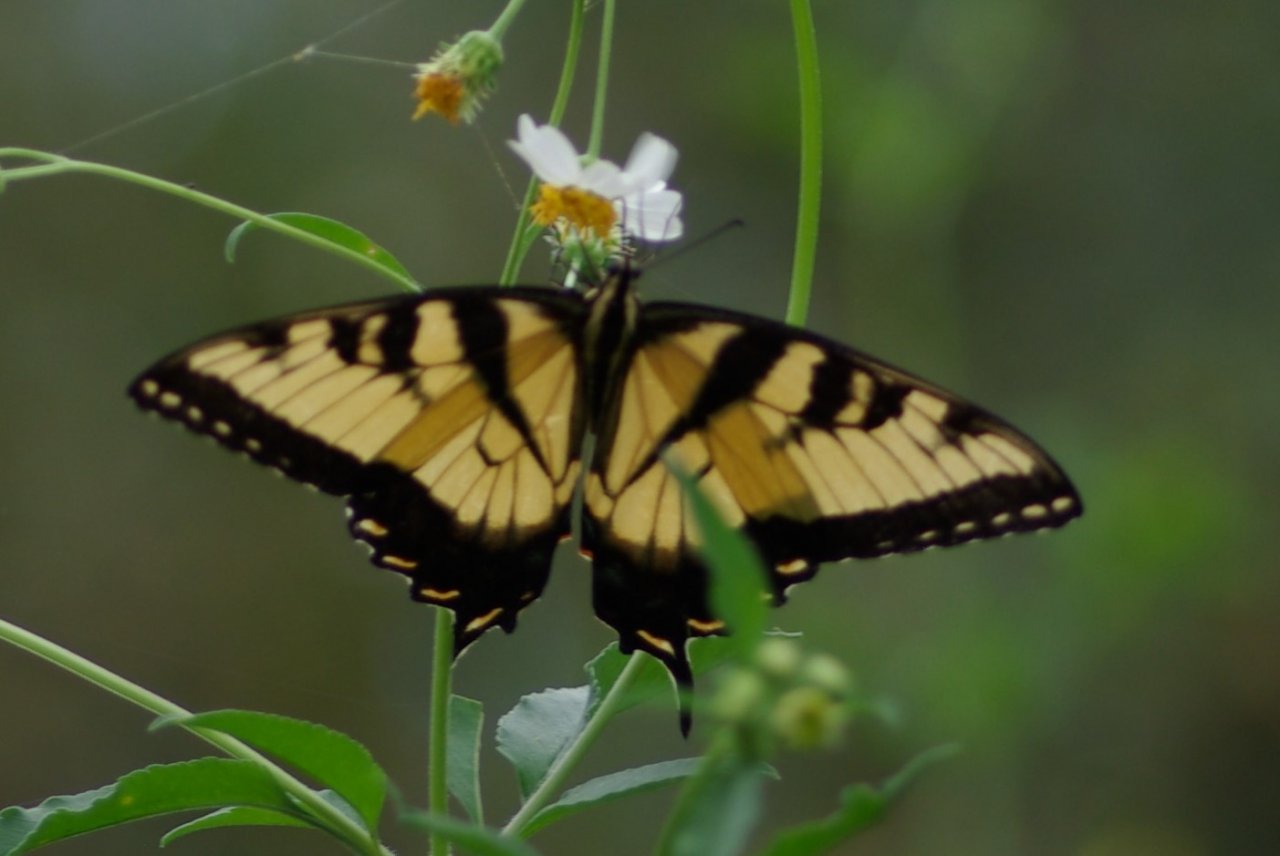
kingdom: Animalia
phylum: Arthropoda
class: Insecta
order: Lepidoptera
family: Papilionidae
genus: Pterourus
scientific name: Pterourus glaucus
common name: Eastern Tiger Swallowtail
